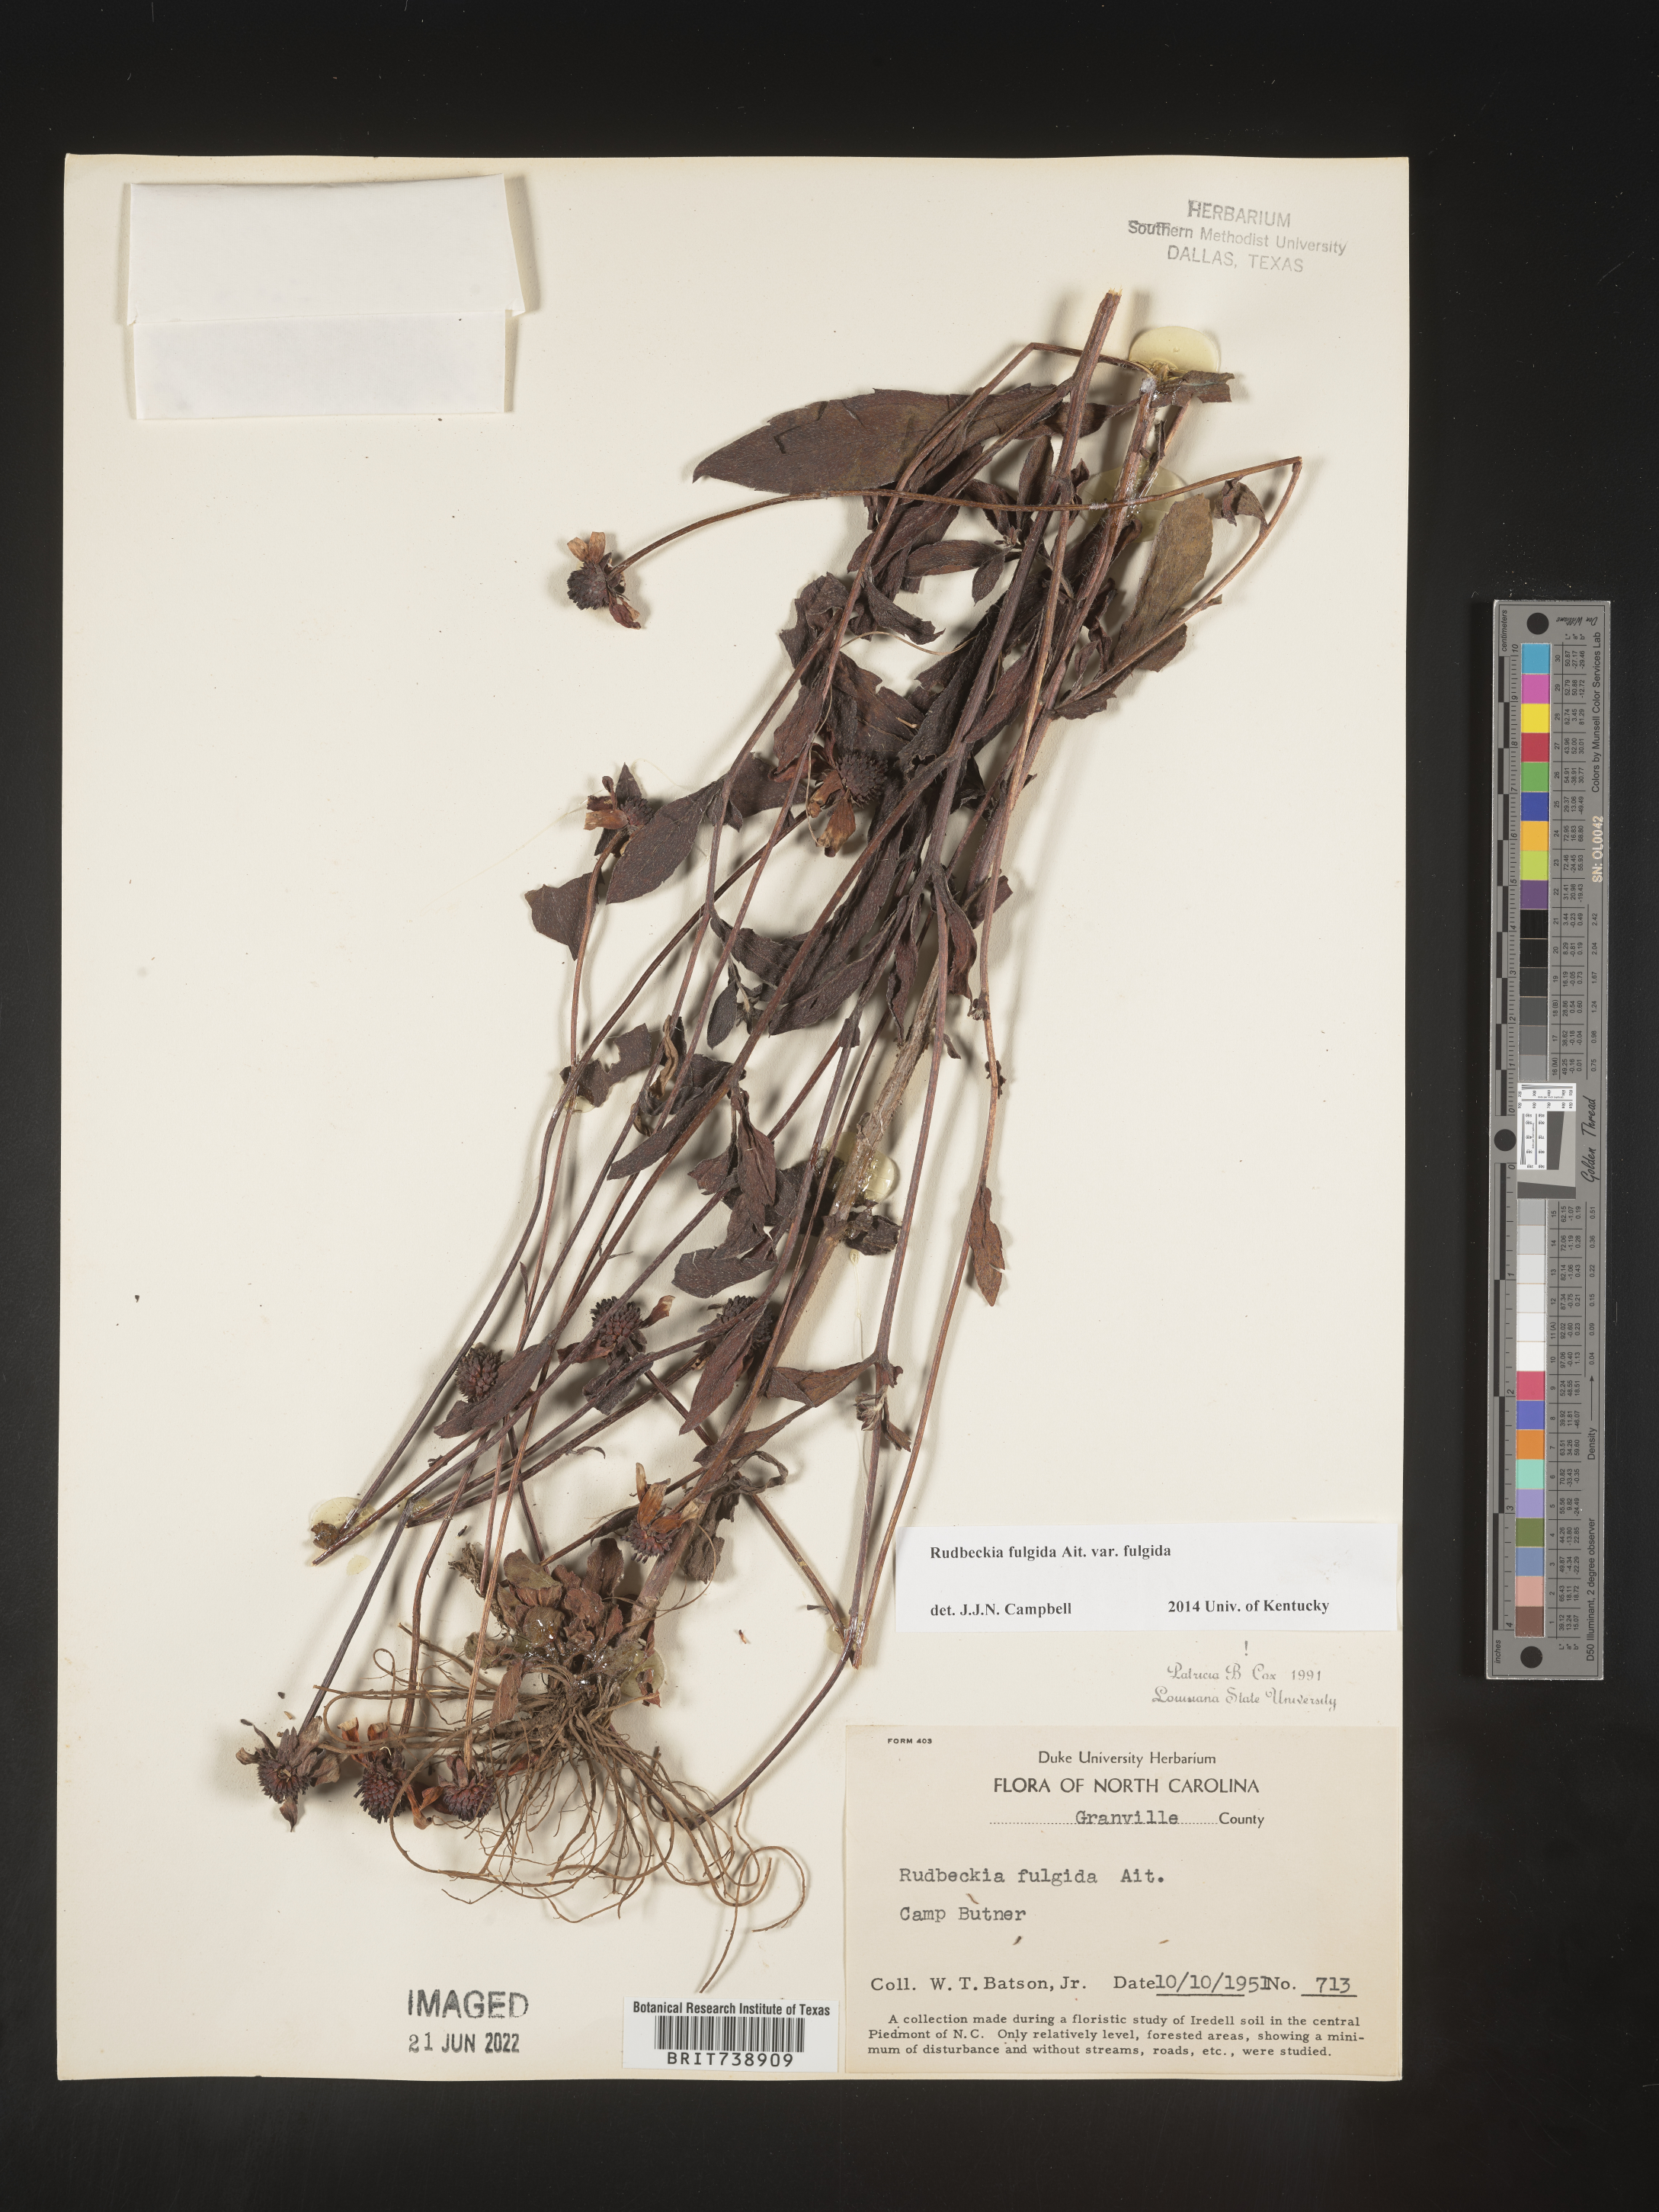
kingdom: Plantae
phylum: Tracheophyta
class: Magnoliopsida
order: Asterales
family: Asteraceae
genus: Rudbeckia
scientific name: Rudbeckia fulgida
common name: Perennial coneflower
